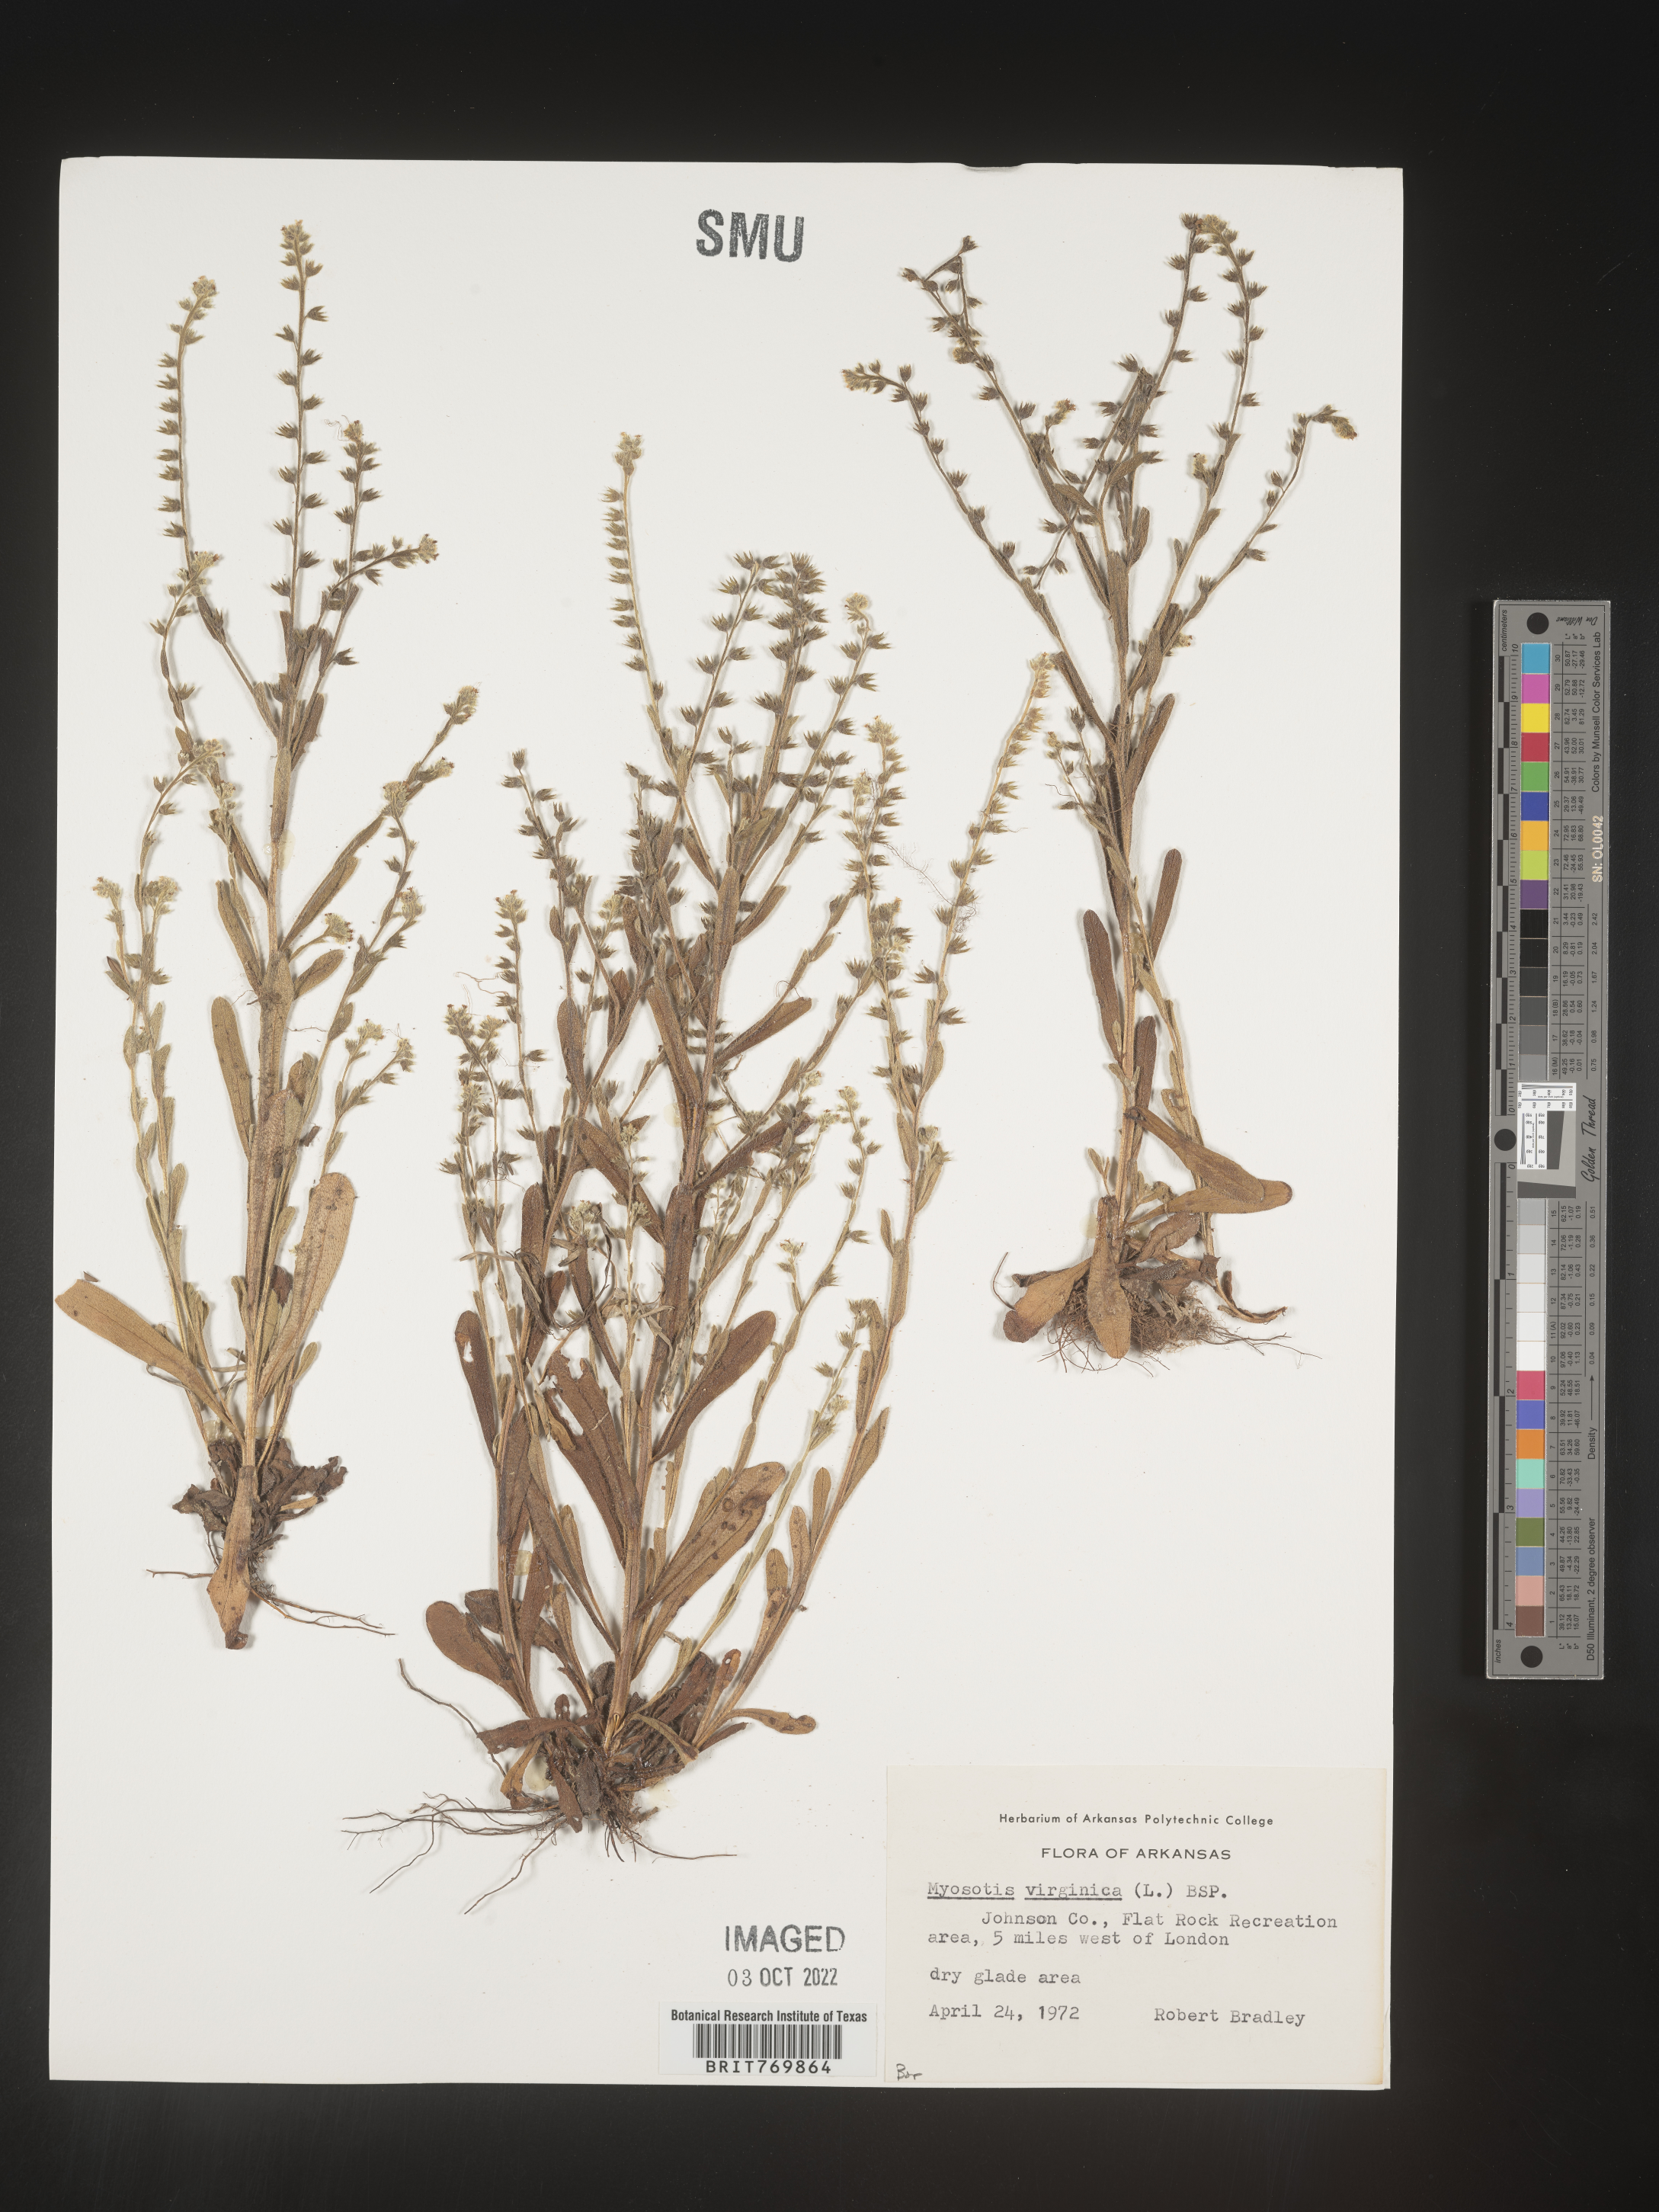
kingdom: Plantae
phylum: Tracheophyta
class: Magnoliopsida
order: Boraginales
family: Boraginaceae
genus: Myosotis
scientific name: Myosotis
